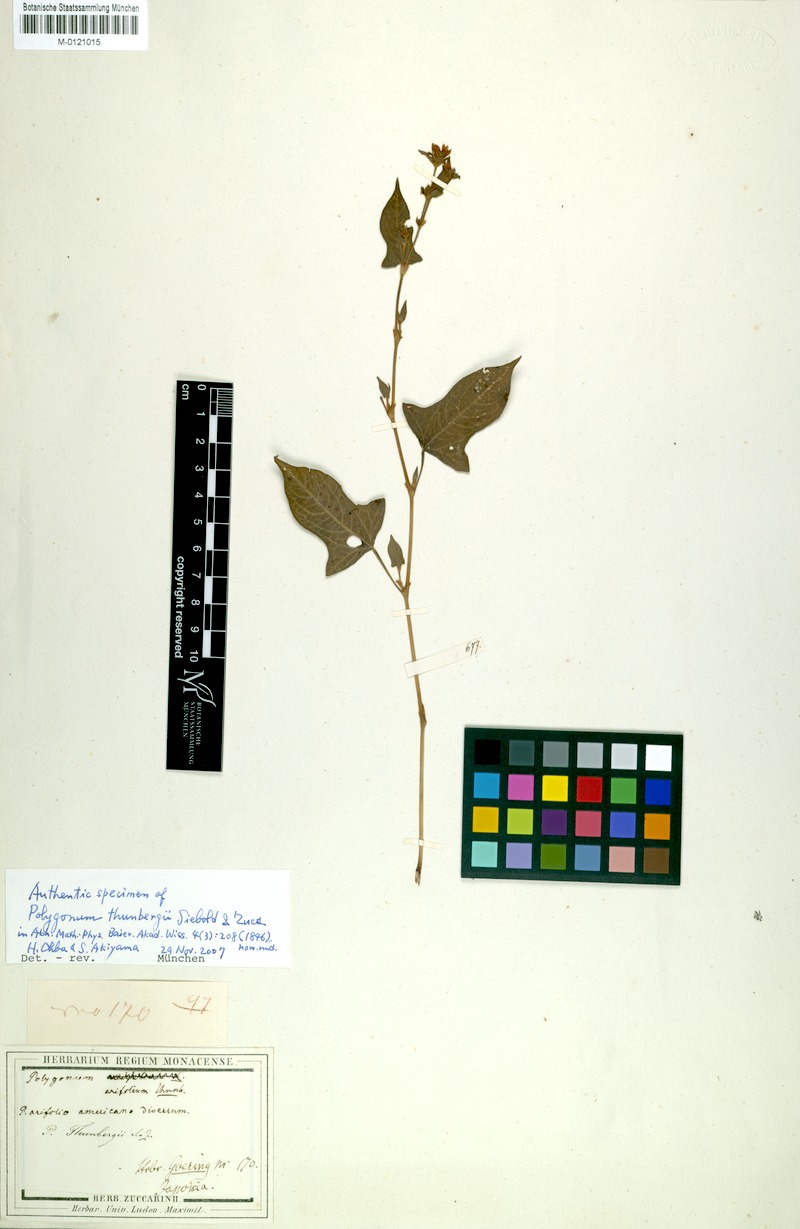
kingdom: Plantae
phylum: Tracheophyta
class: Magnoliopsida
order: Caryophyllales
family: Polygonaceae
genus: Persicaria
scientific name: Persicaria thunbergii
